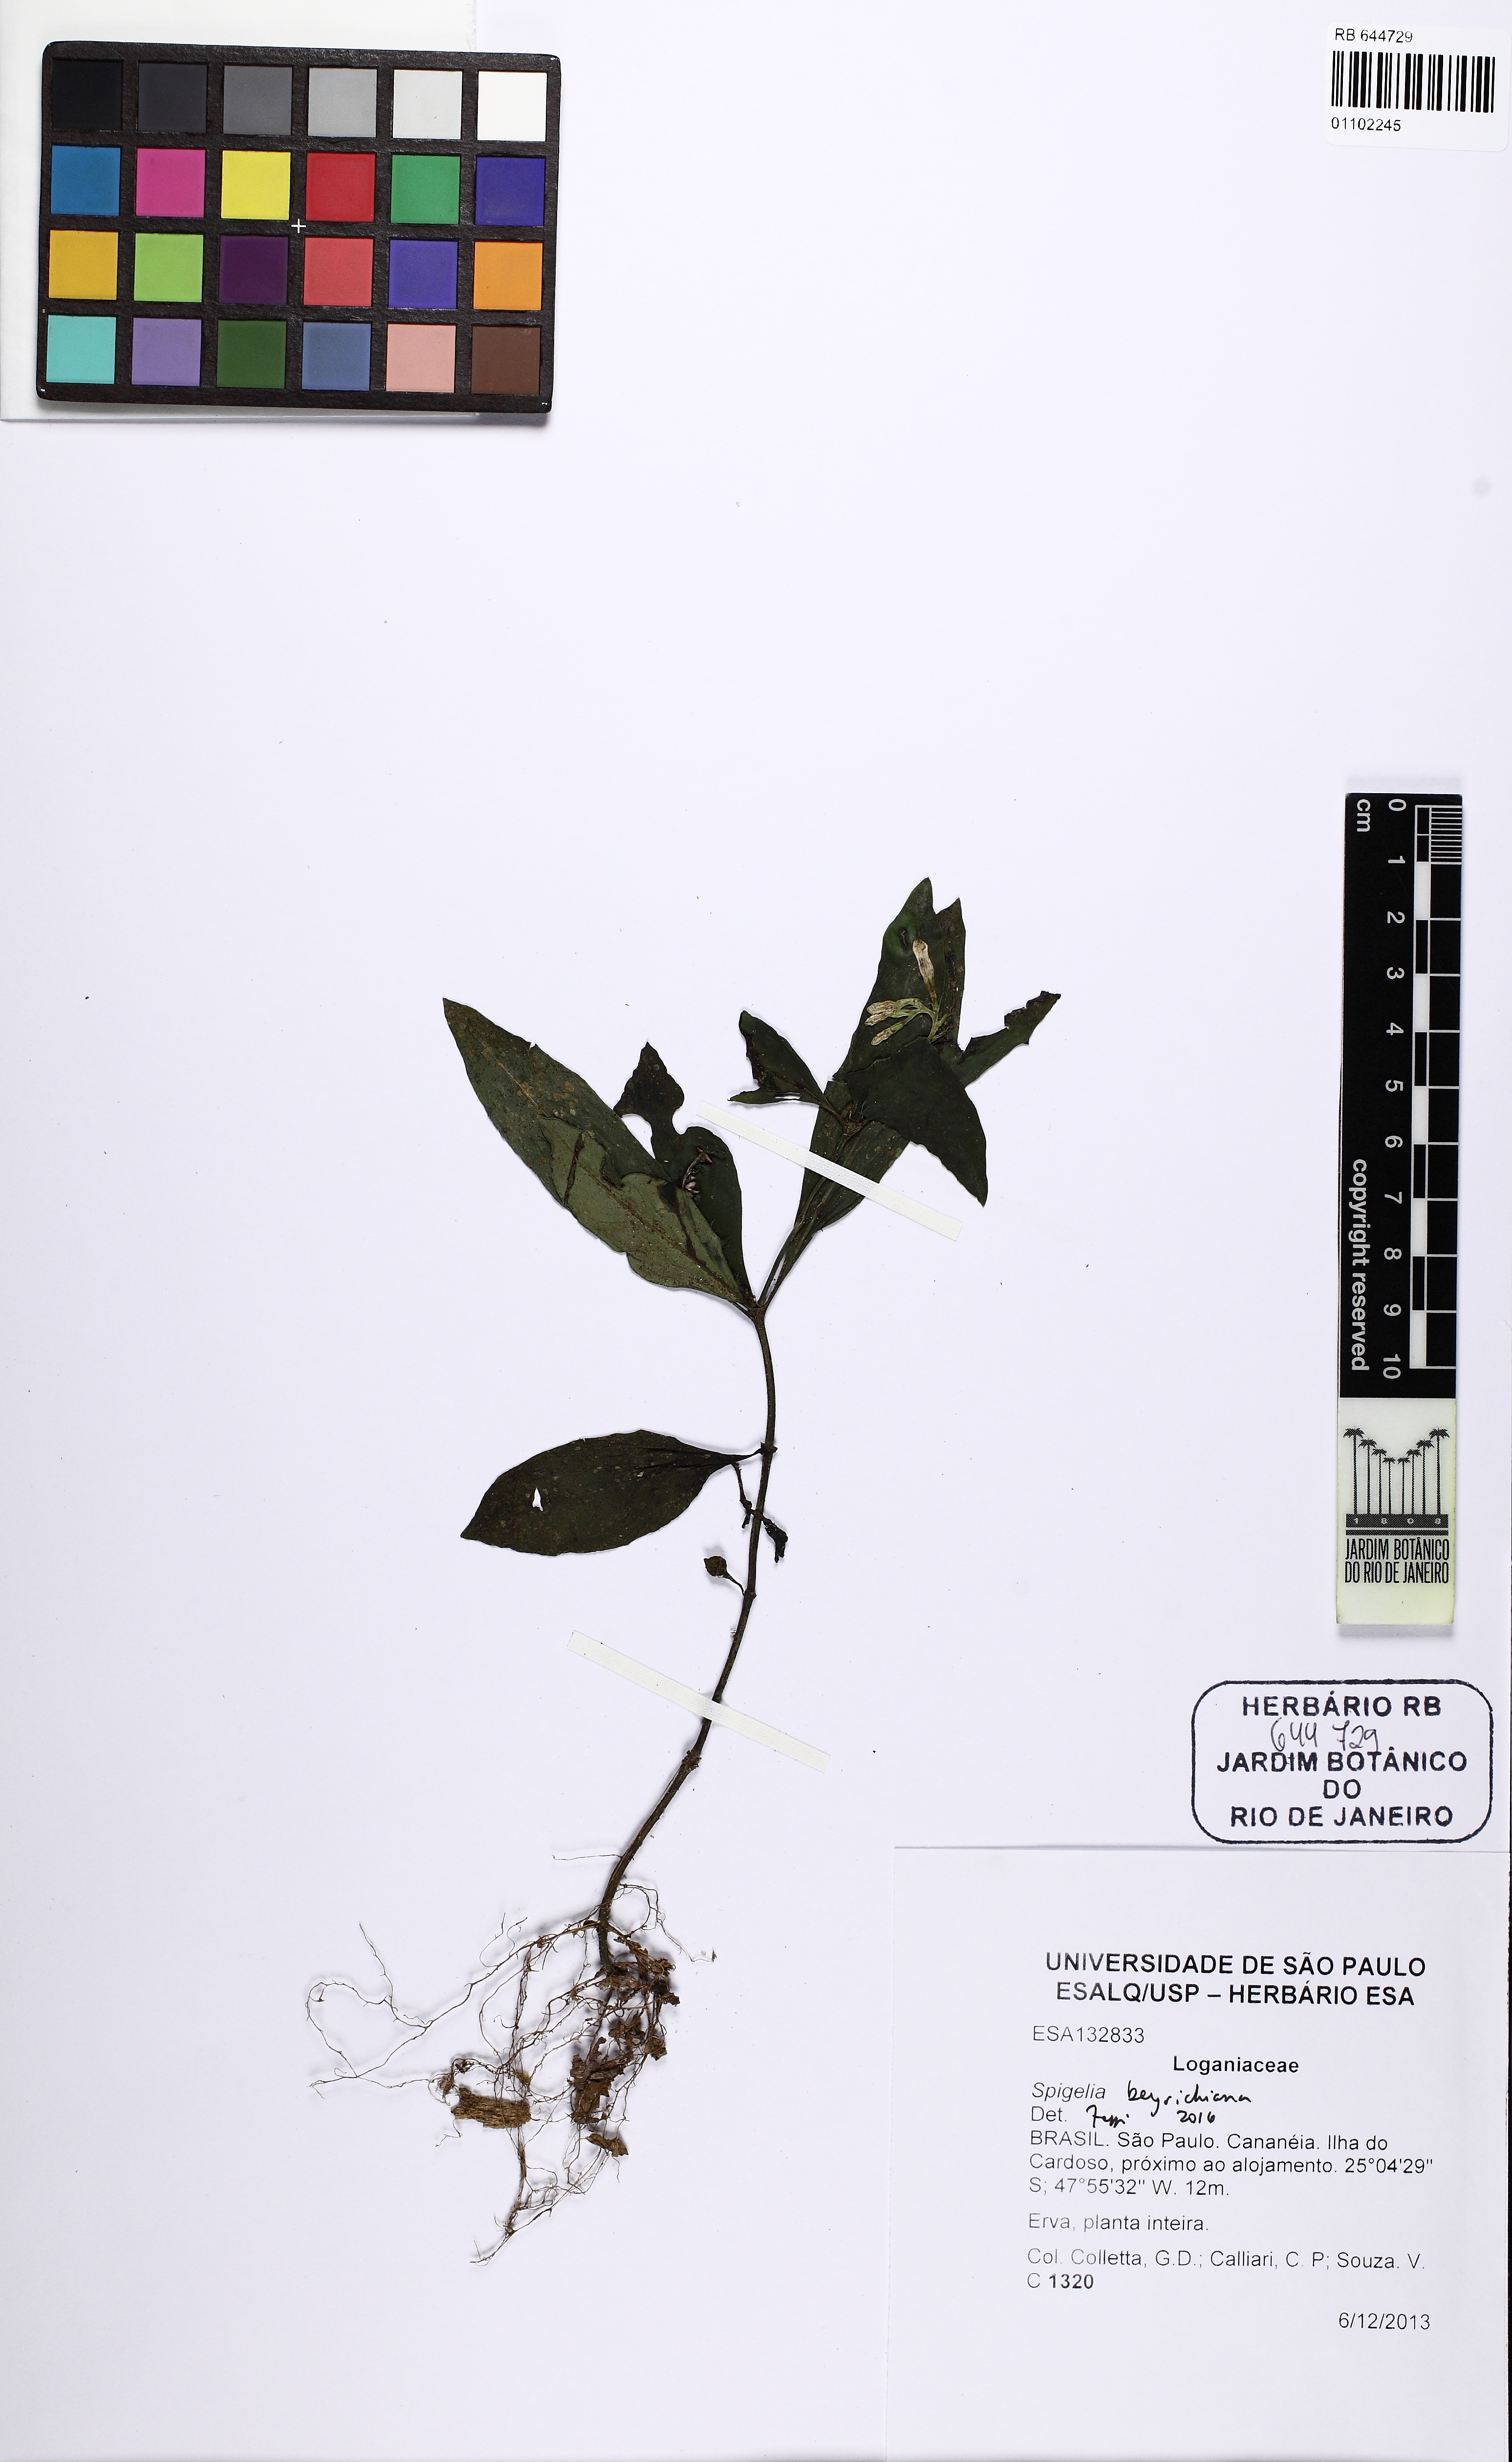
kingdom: Plantae
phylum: Tracheophyta
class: Magnoliopsida
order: Gentianales
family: Loganiaceae
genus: Spigelia
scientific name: Spigelia beyrichiana
